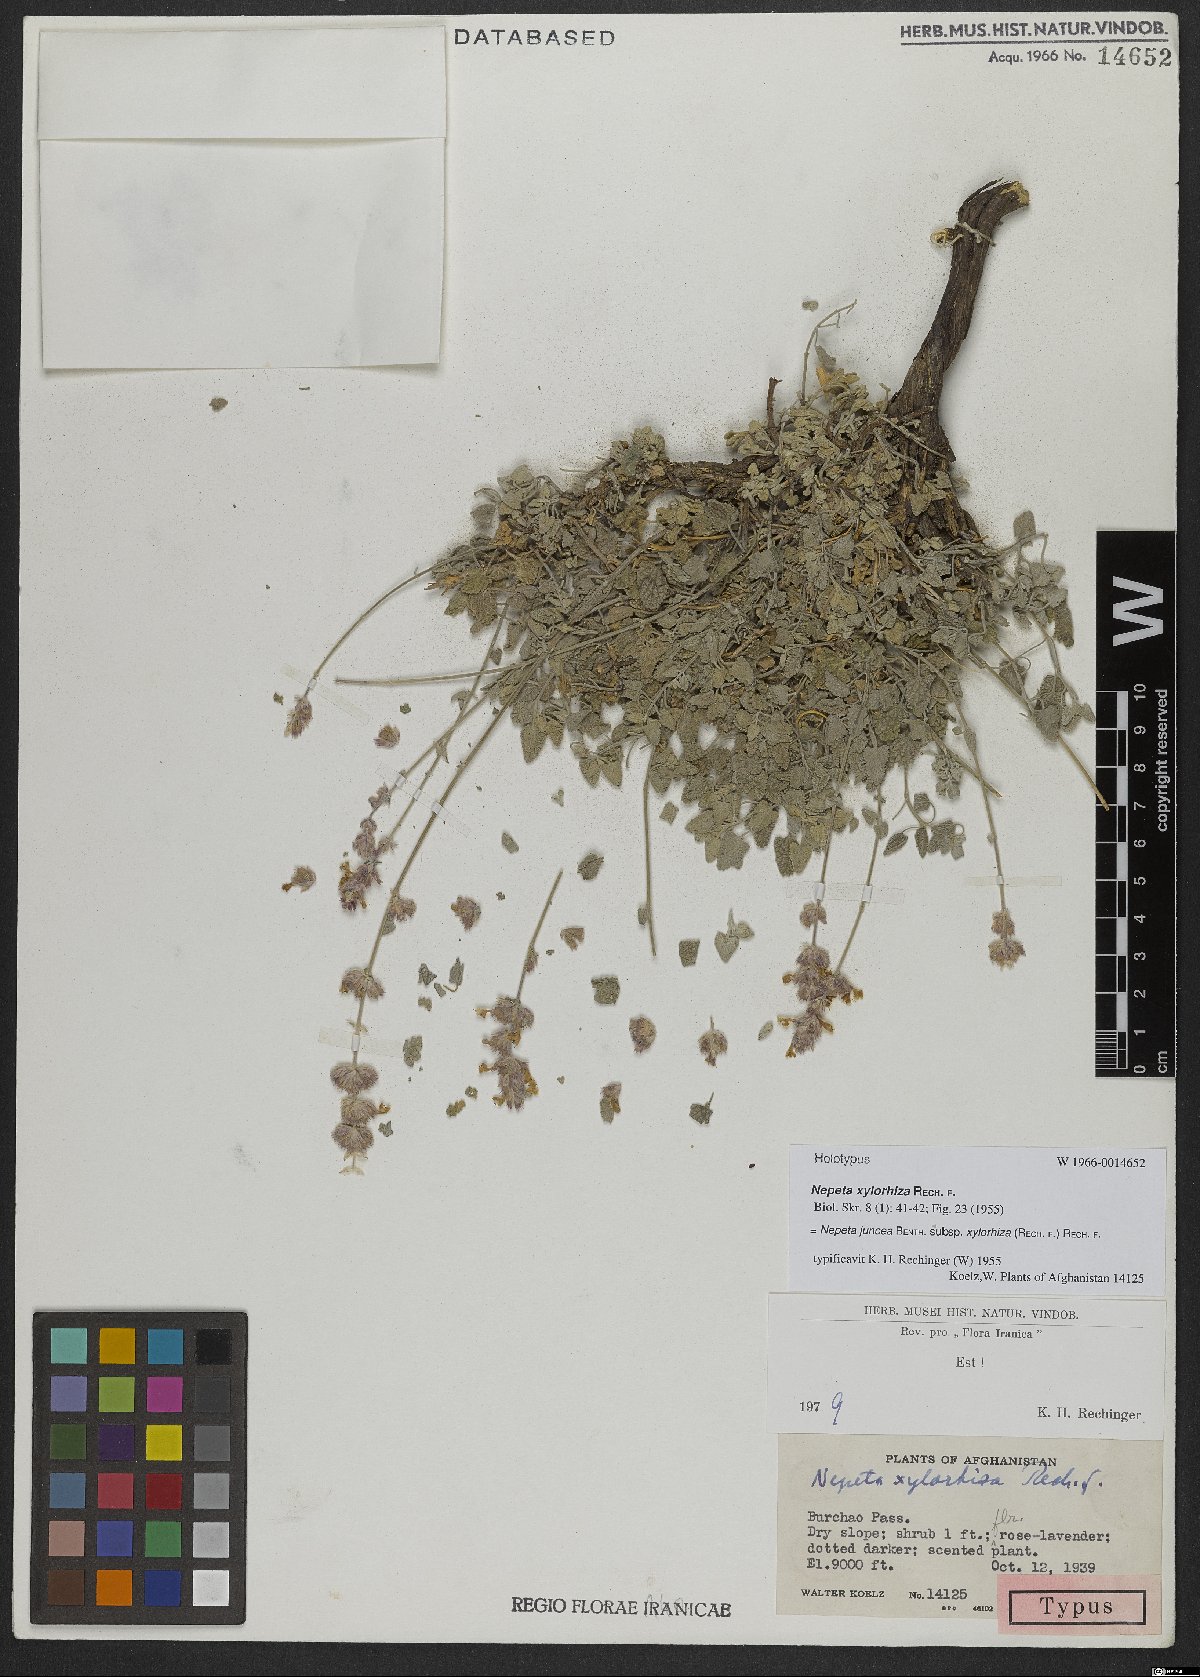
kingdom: Plantae
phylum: Tracheophyta
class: Magnoliopsida
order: Lamiales
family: Lamiaceae
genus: Nepeta
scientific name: Nepeta juncea
